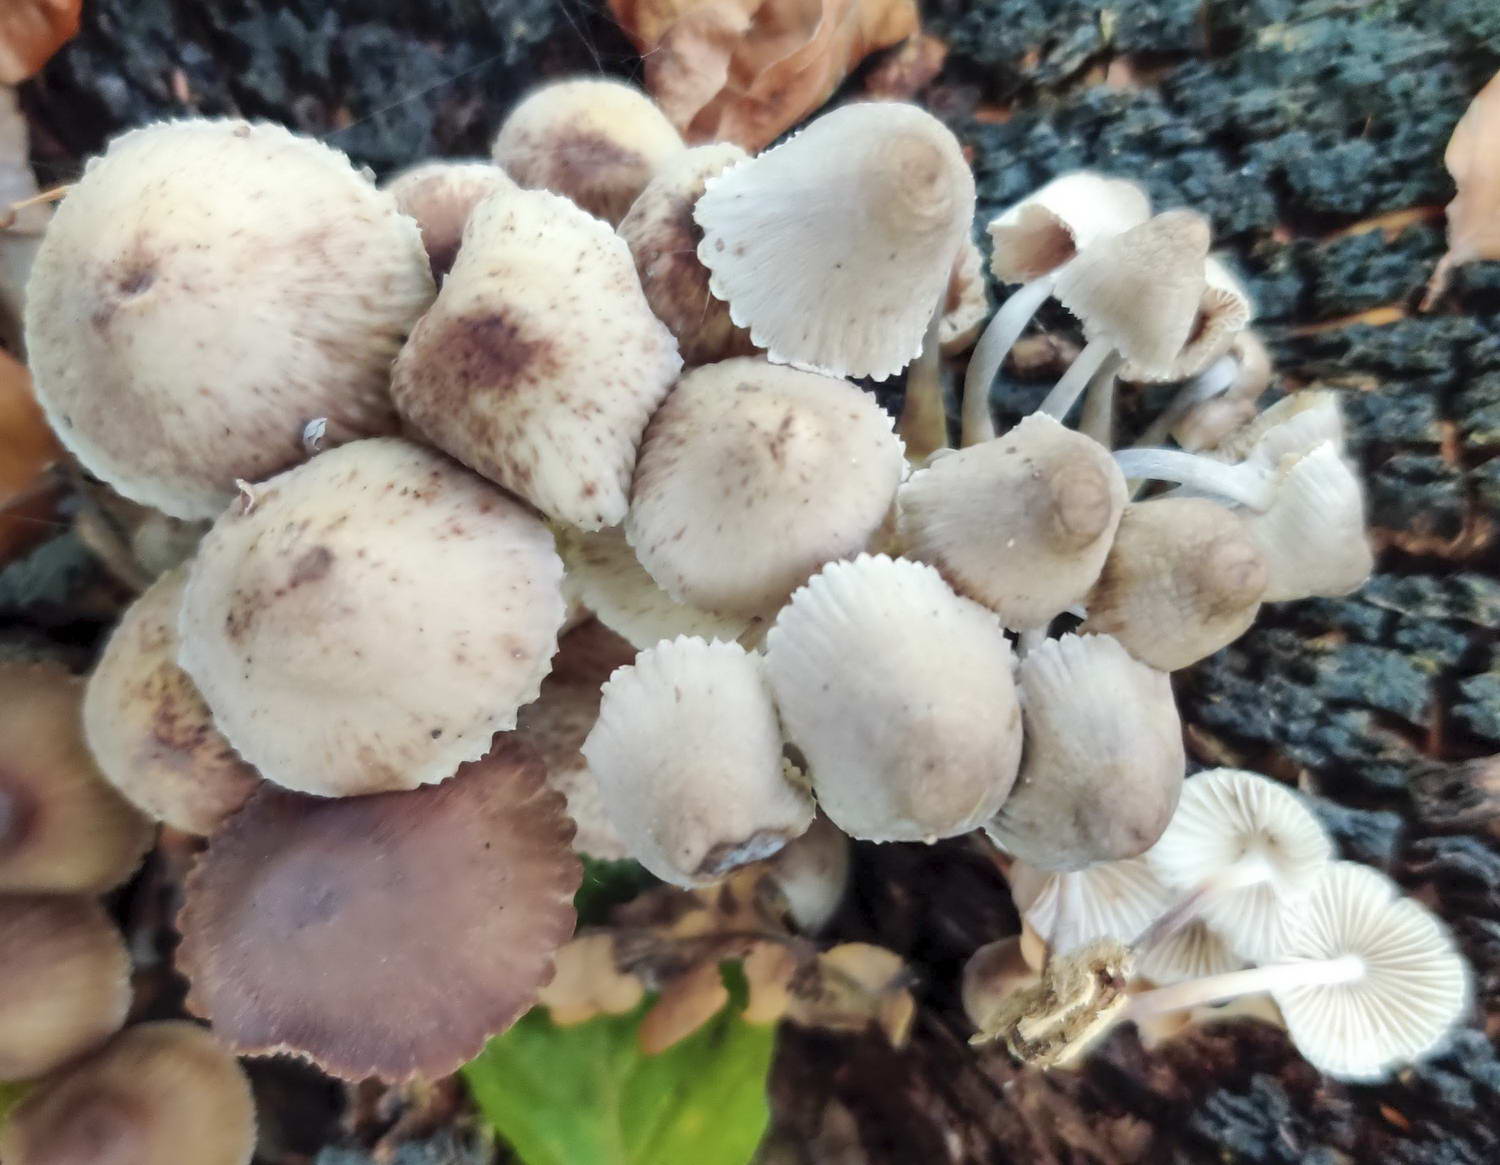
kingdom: Fungi
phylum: Basidiomycota
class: Agaricomycetes
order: Agaricales
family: Mycenaceae
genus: Mycena
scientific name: Mycena inclinata
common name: nikkende huesvamp
